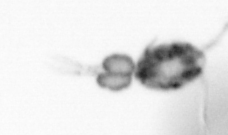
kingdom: Animalia
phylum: Annelida
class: Polychaeta
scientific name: Polychaeta
